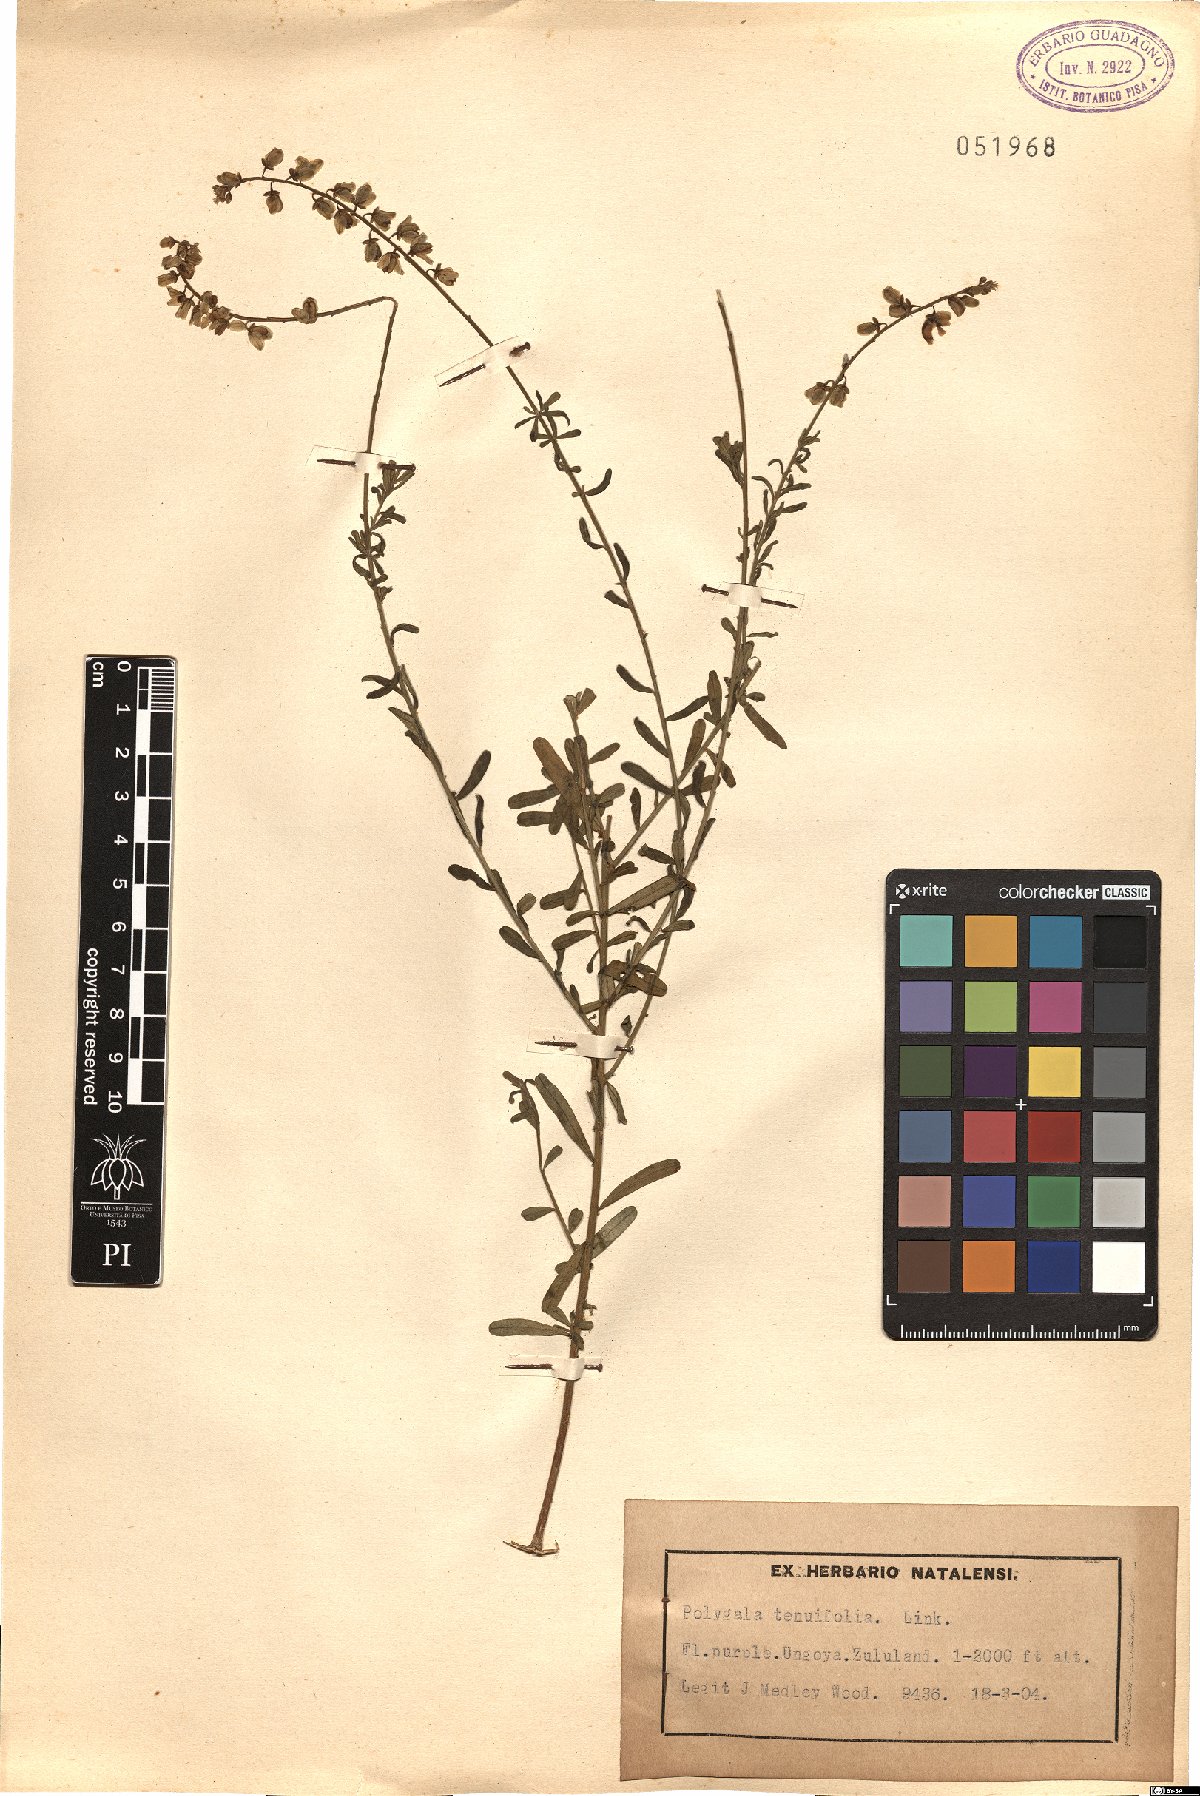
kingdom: Plantae
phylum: Tracheophyta
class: Magnoliopsida
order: Fabales
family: Polygalaceae
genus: Polygala
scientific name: Polygala rarifolia
